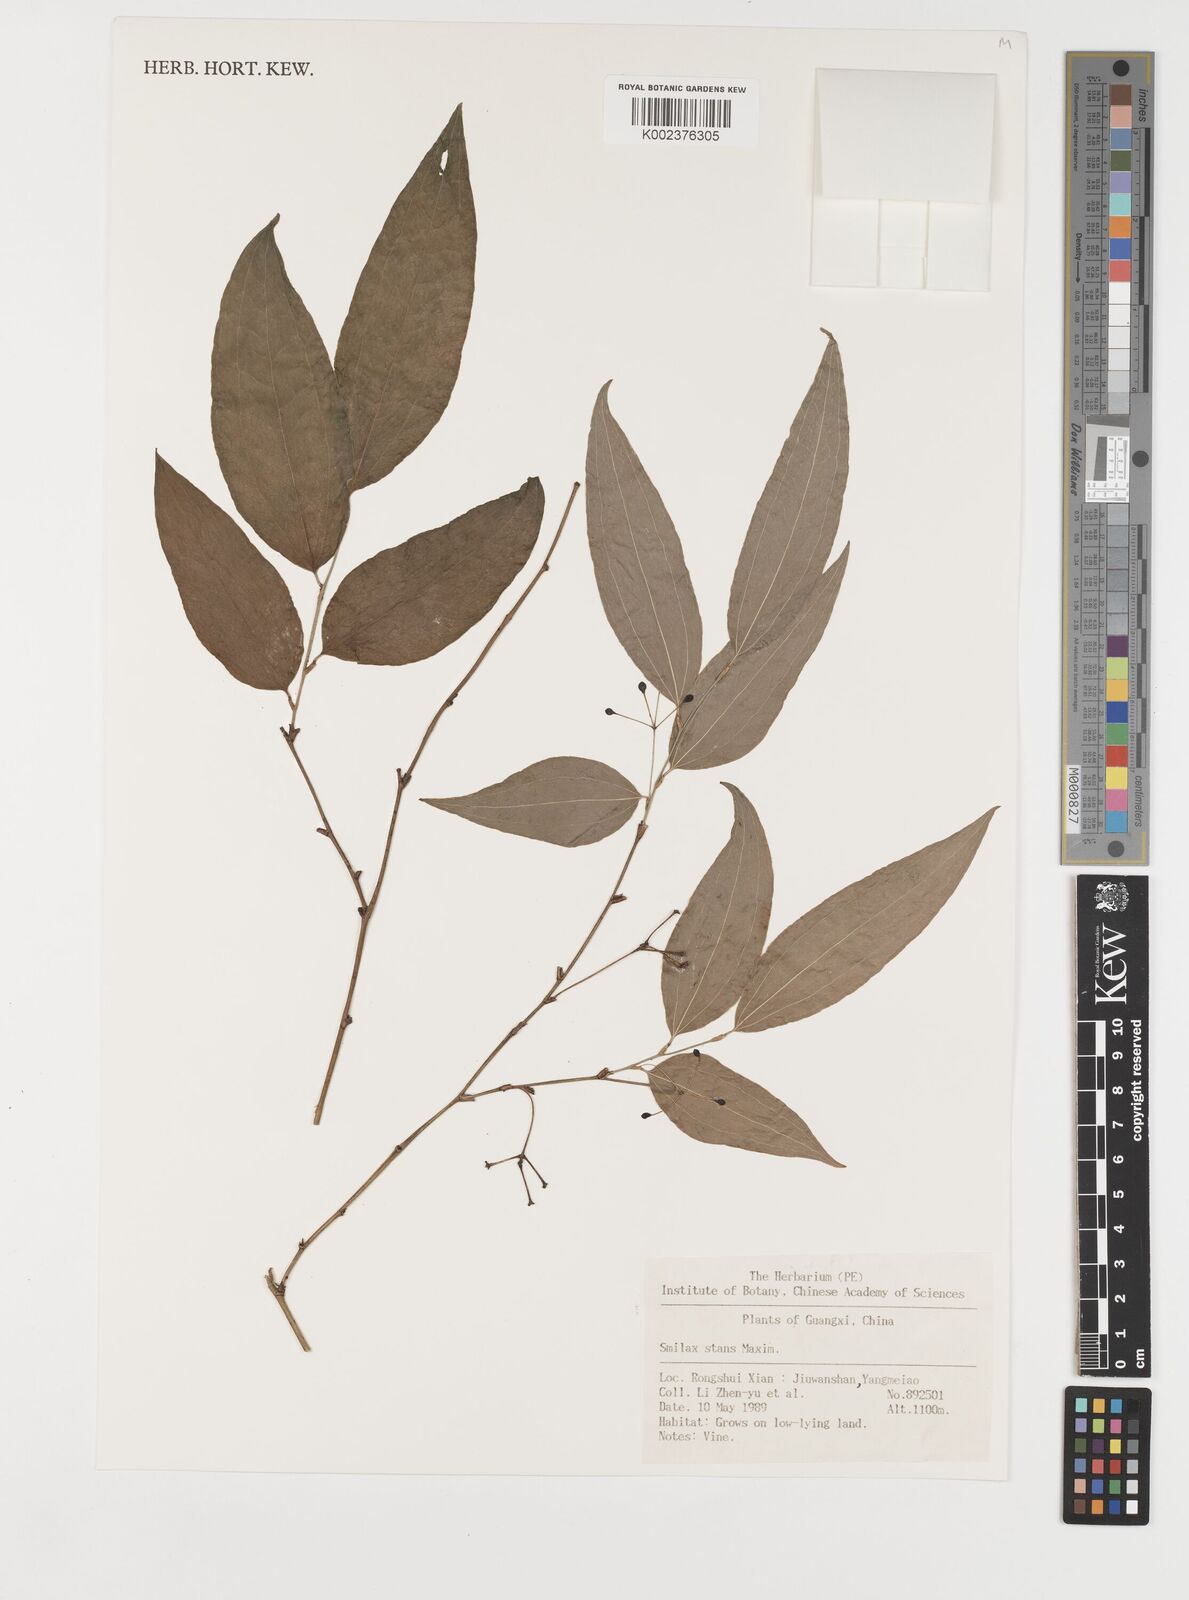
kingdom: Plantae
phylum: Tracheophyta
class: Liliopsida
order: Liliales
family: Smilacaceae
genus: Smilax
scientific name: Smilax stans
